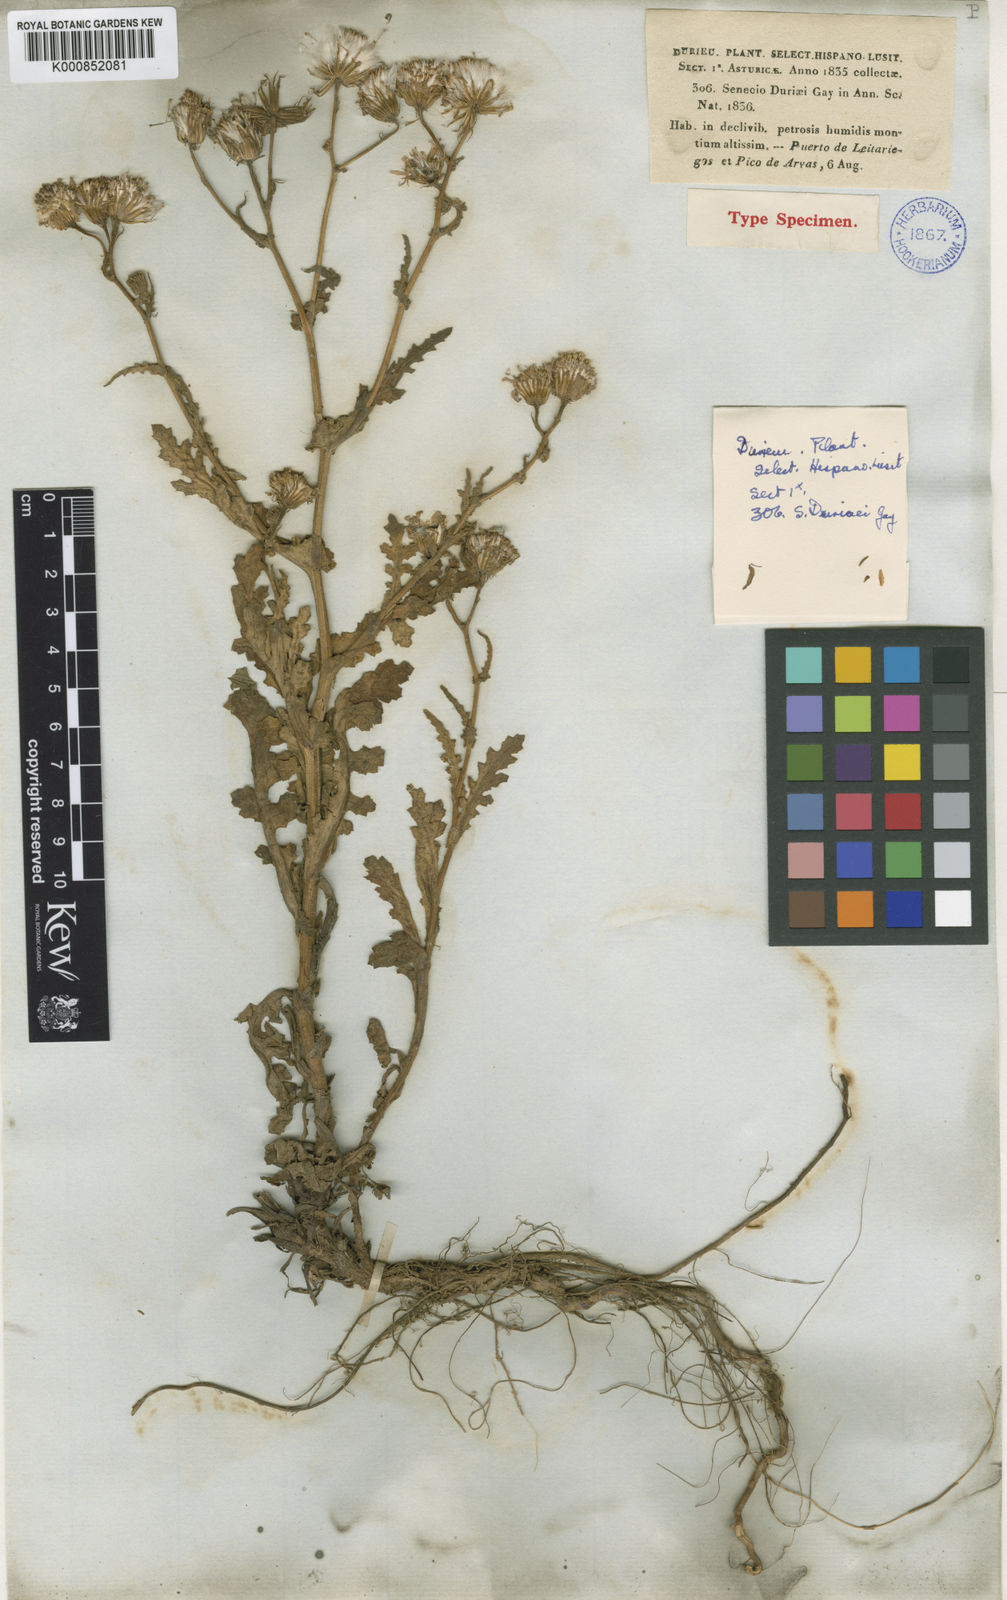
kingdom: Plantae
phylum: Tracheophyta
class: Magnoliopsida
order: Asterales
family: Asteraceae
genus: Senecio
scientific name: Senecio duriaei
